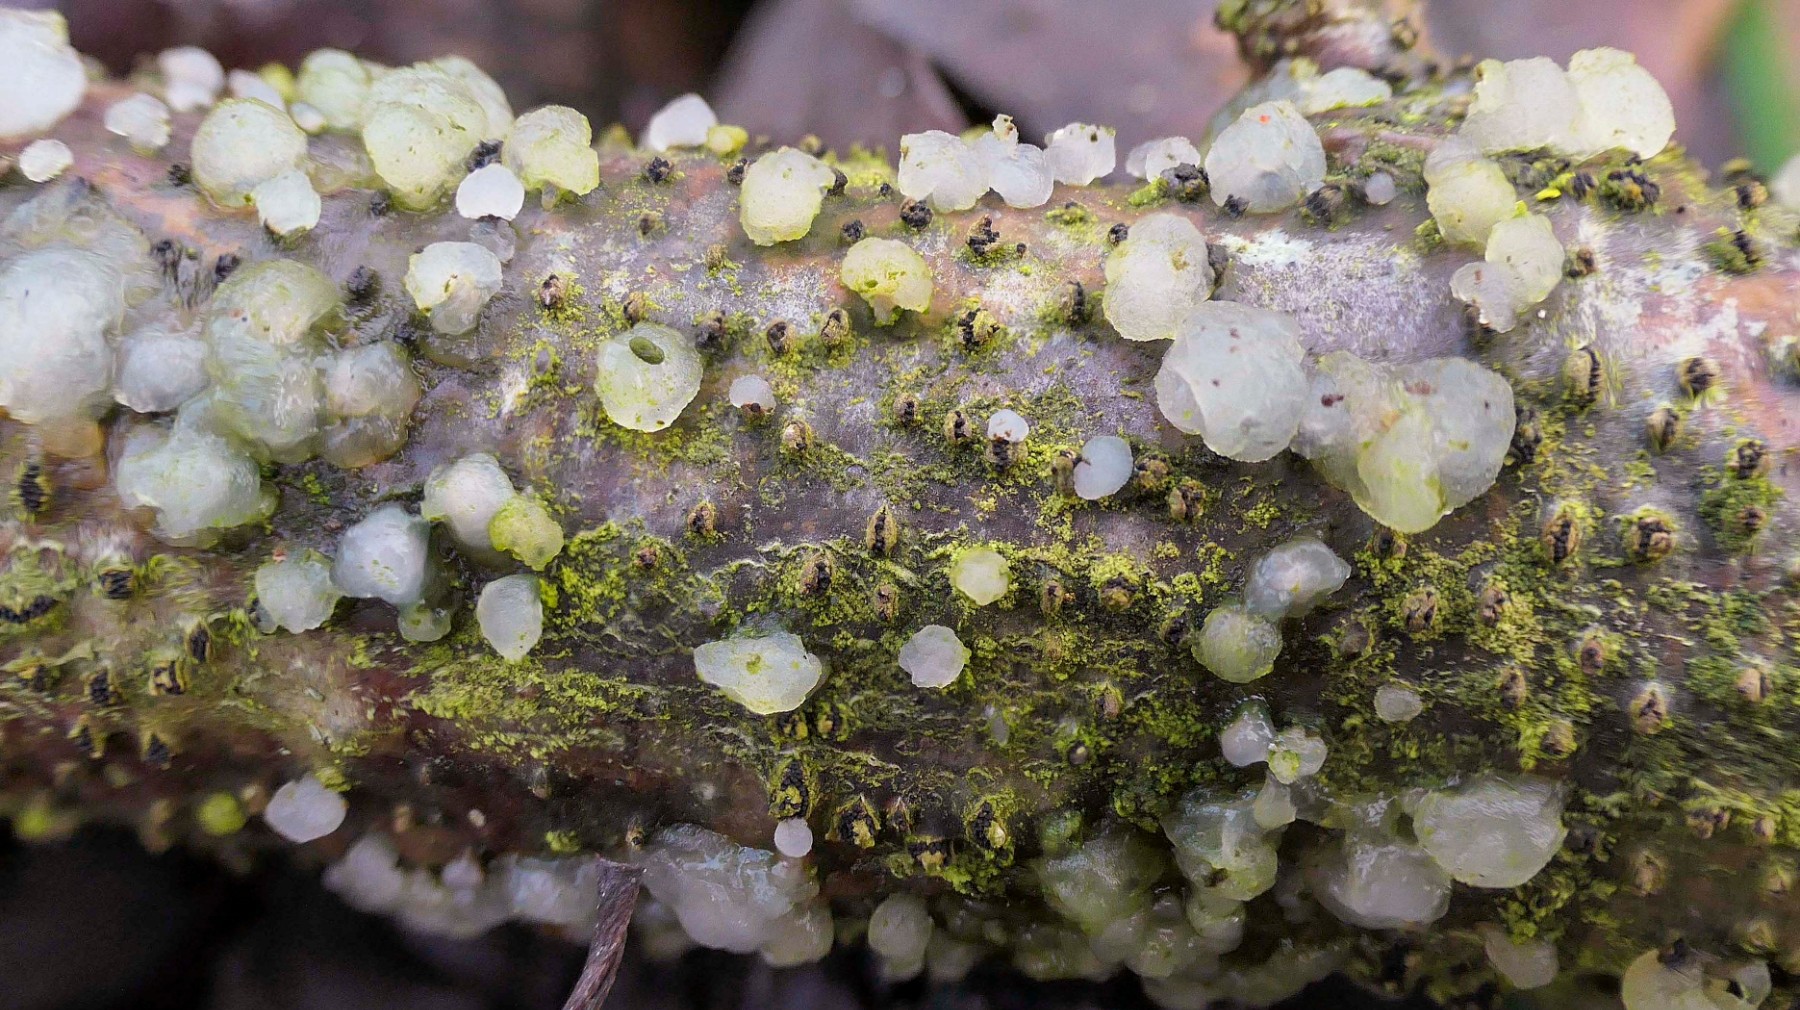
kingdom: Fungi
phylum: Basidiomycota
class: Tremellomycetes
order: Tremellales
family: Tremellaceae
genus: Tremella
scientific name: Tremella globispora
